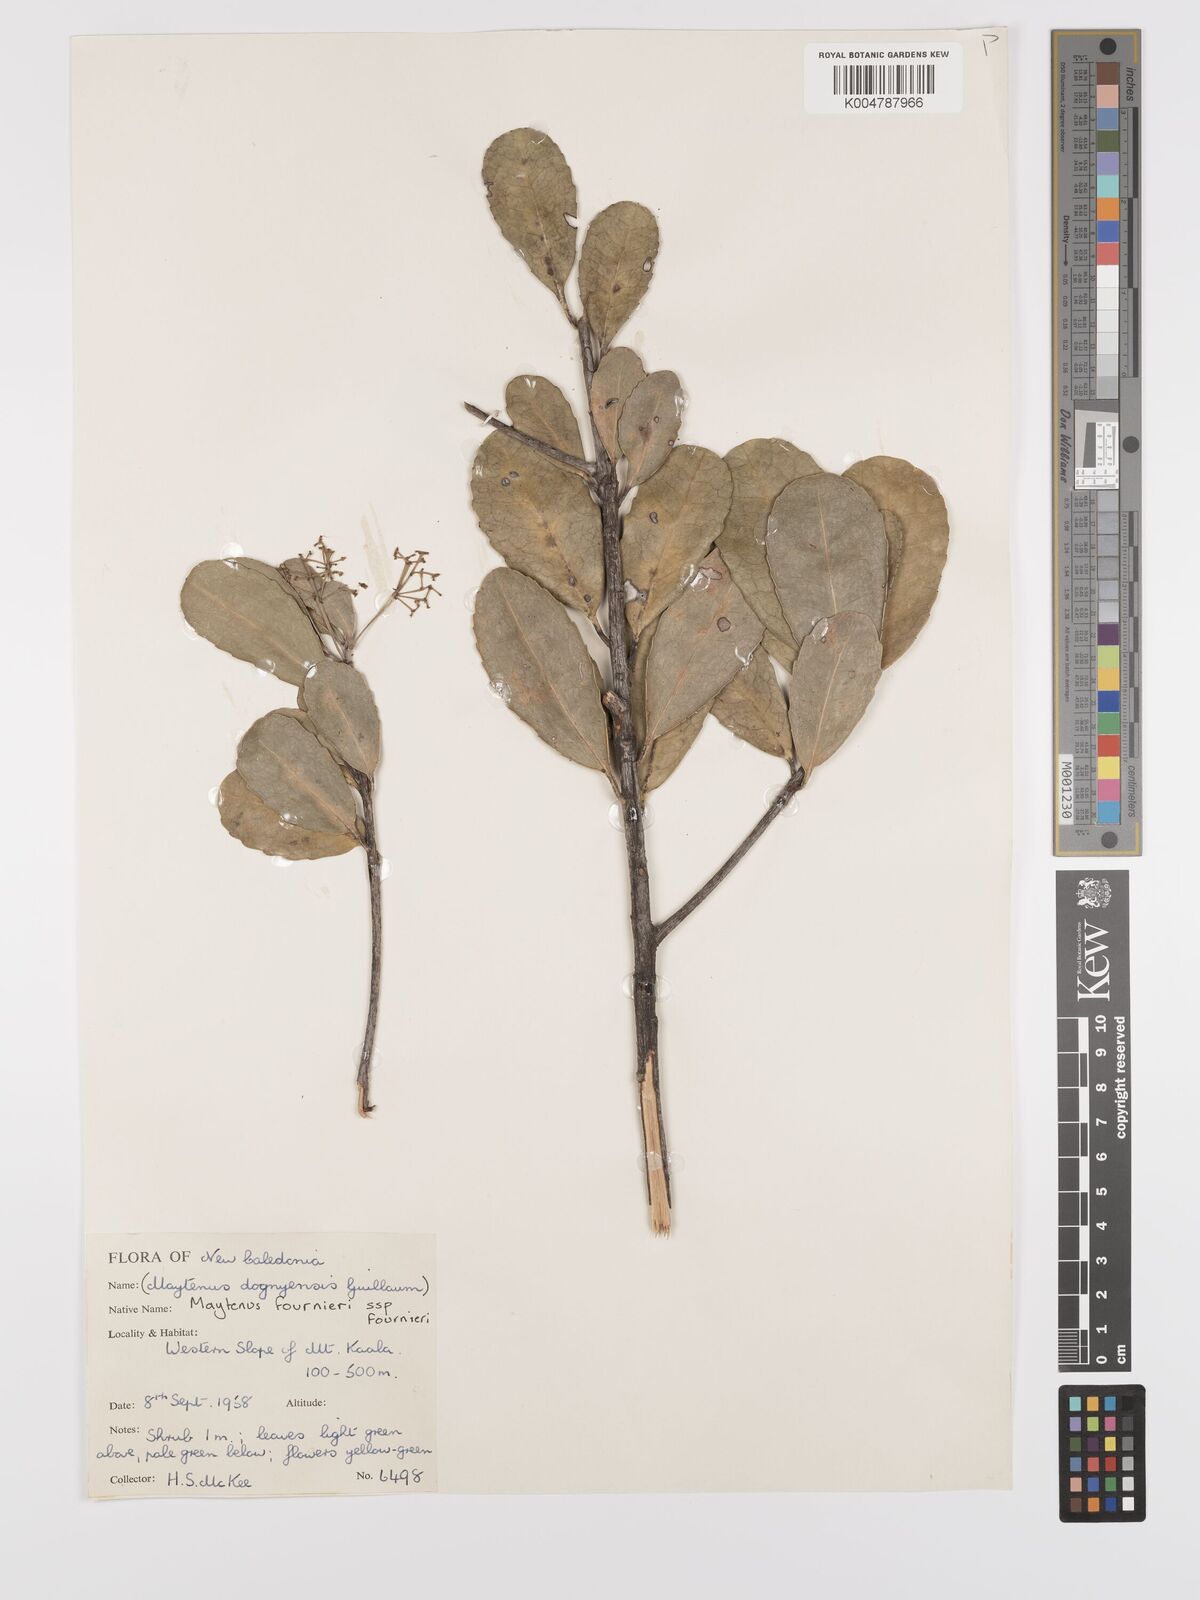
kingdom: Plantae
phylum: Tracheophyta
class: Magnoliopsida
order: Celastrales
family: Celastraceae
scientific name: Celastraceae
